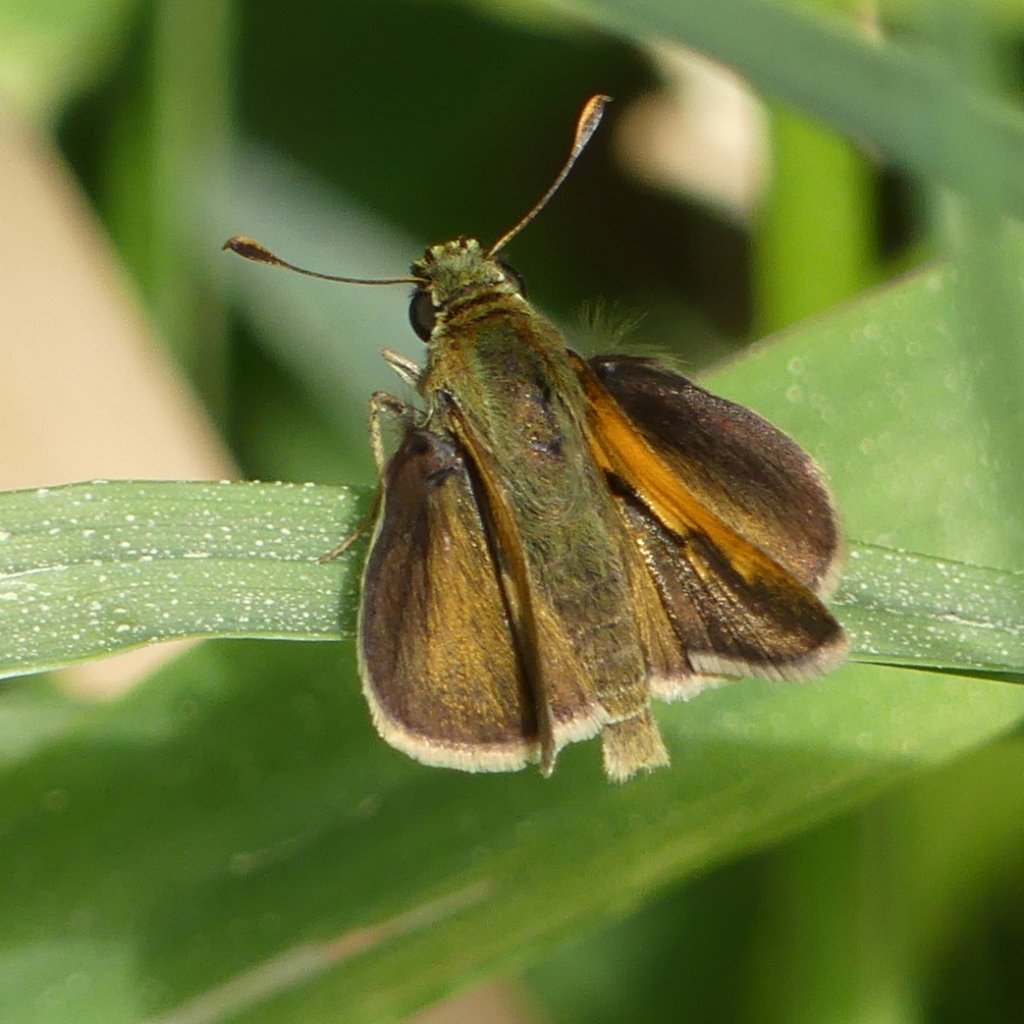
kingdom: Animalia
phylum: Arthropoda
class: Insecta
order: Lepidoptera
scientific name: Lepidoptera
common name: Butterflies
